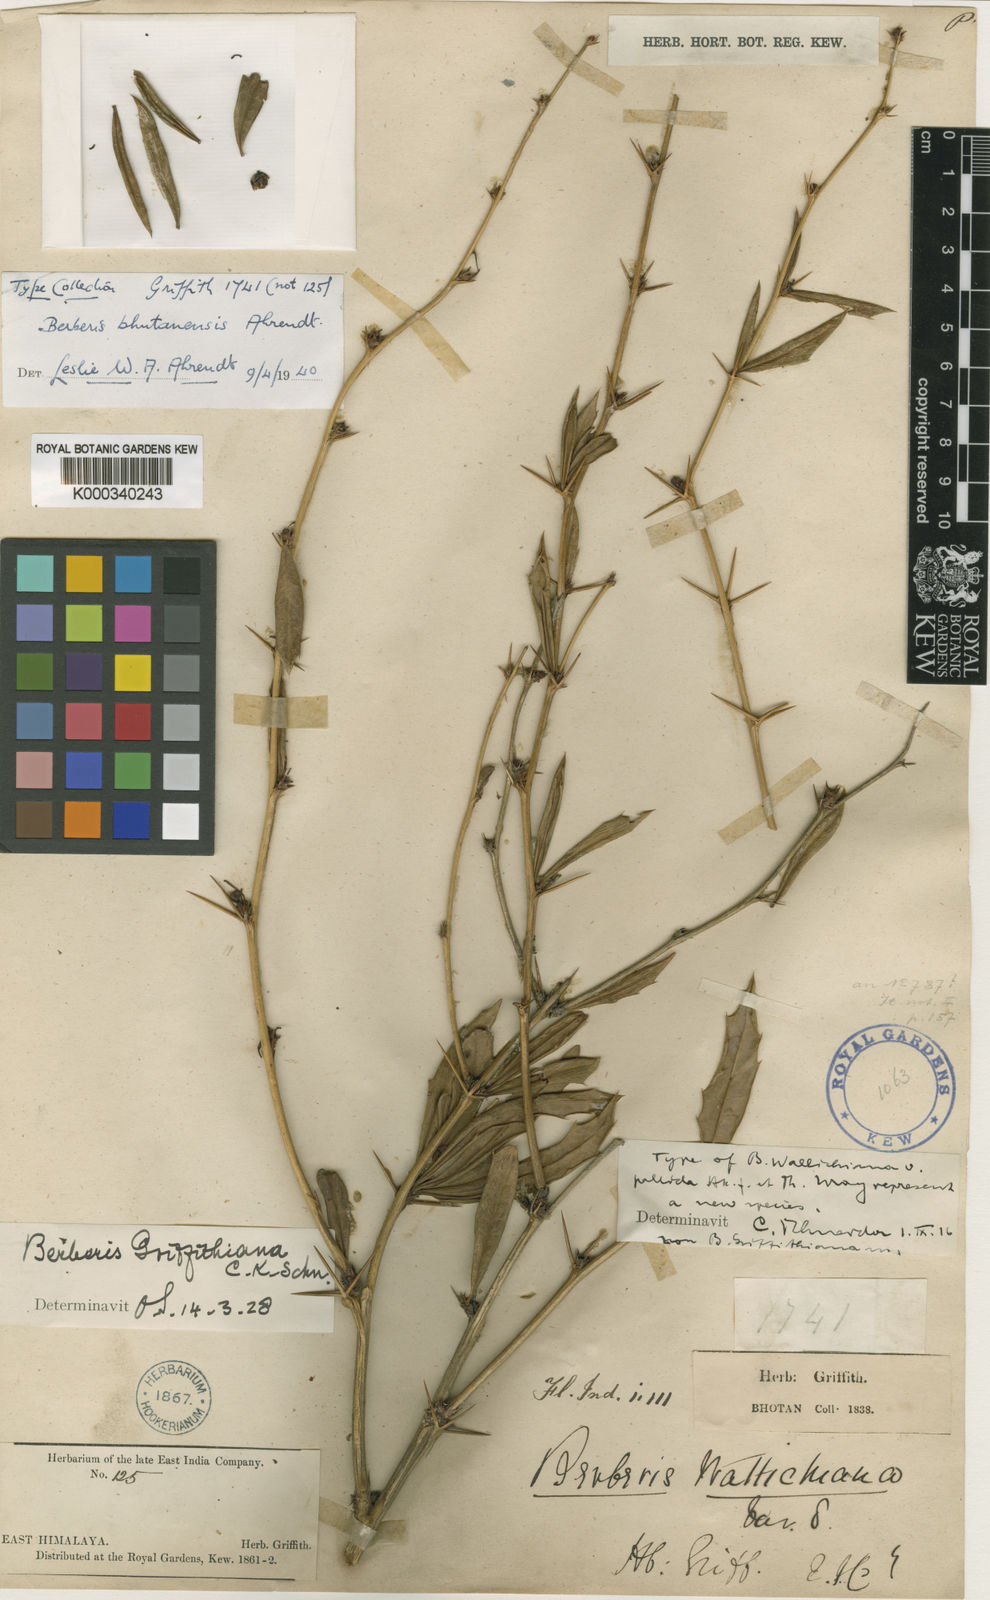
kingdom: Plantae
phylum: Tracheophyta
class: Magnoliopsida
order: Ranunculales
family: Berberidaceae
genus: Berberis
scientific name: Berberis griffithiana
